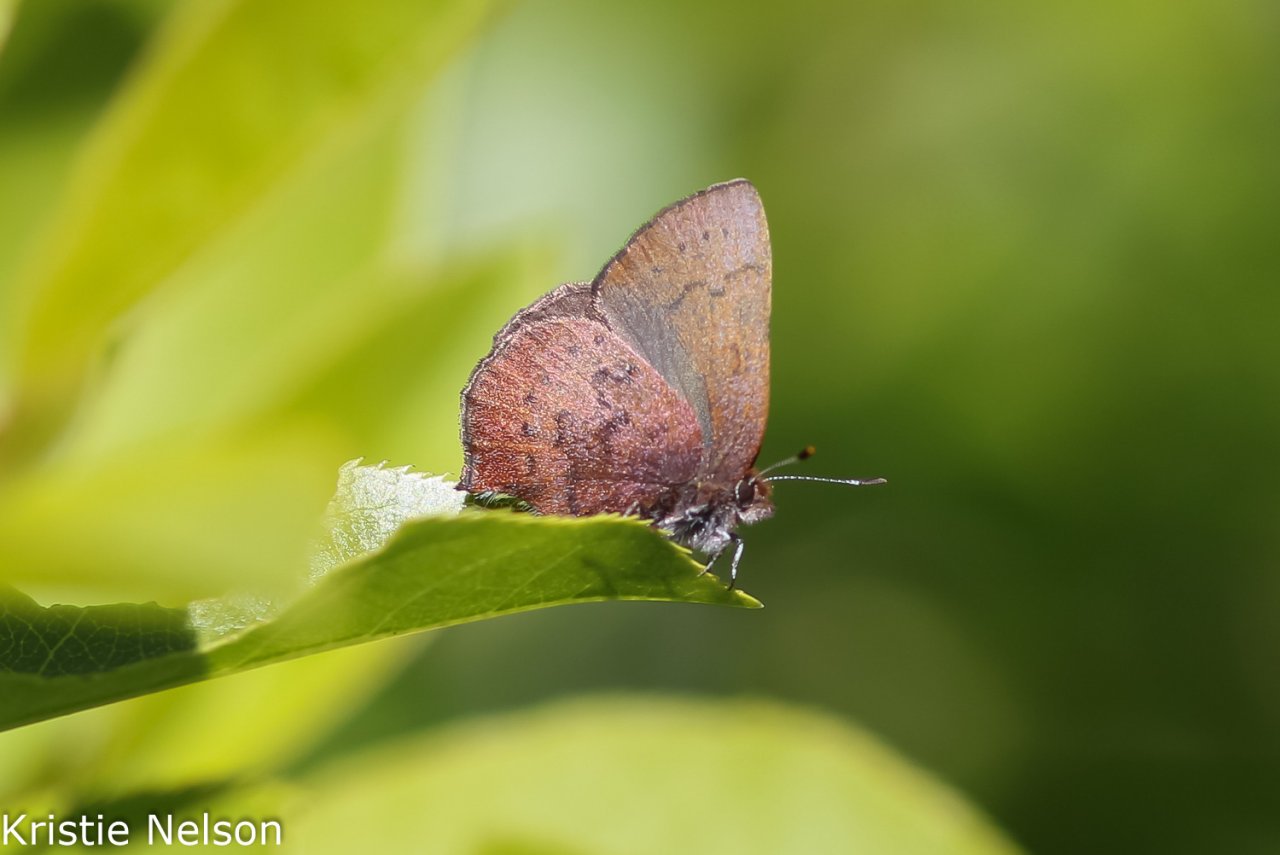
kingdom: Animalia
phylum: Arthropoda
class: Insecta
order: Lepidoptera
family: Lycaenidae
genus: Incisalia
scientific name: Incisalia irioides
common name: Brown Elfin
